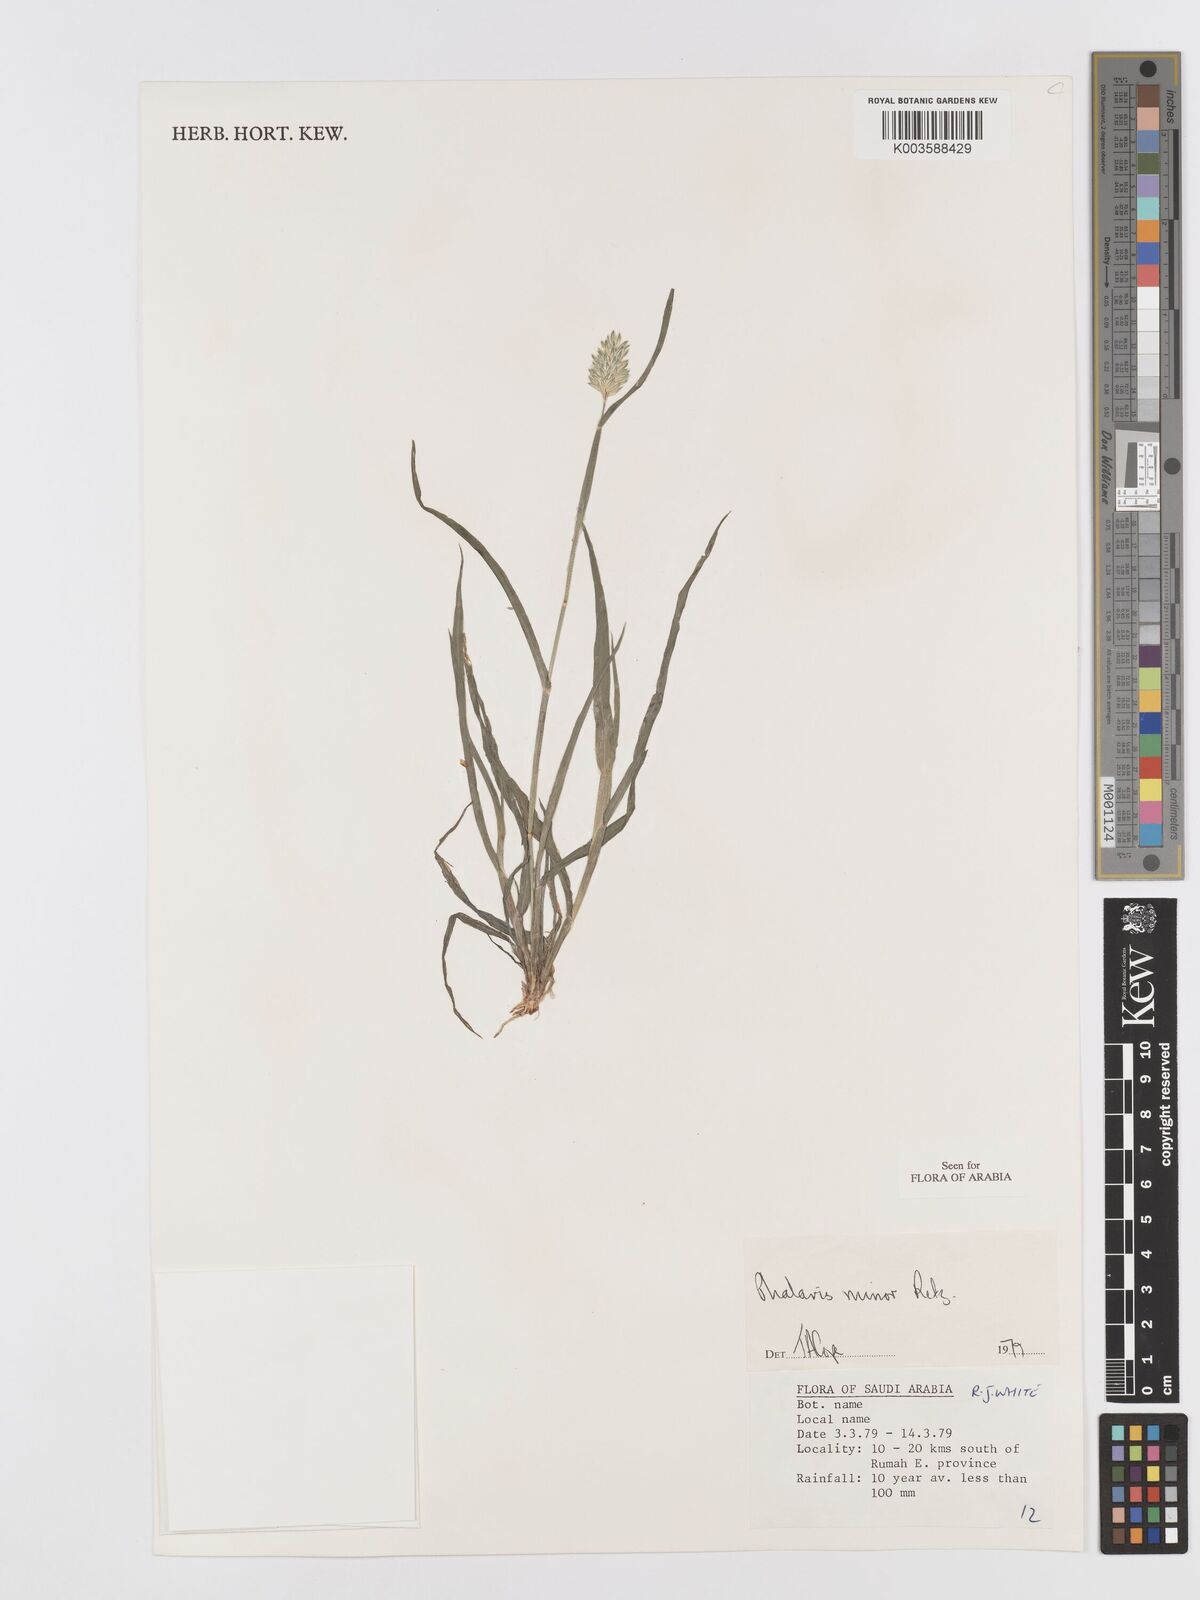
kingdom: Plantae
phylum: Tracheophyta
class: Liliopsida
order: Poales
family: Poaceae
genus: Phalaris
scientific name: Phalaris minor
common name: Littleseed canarygrass
